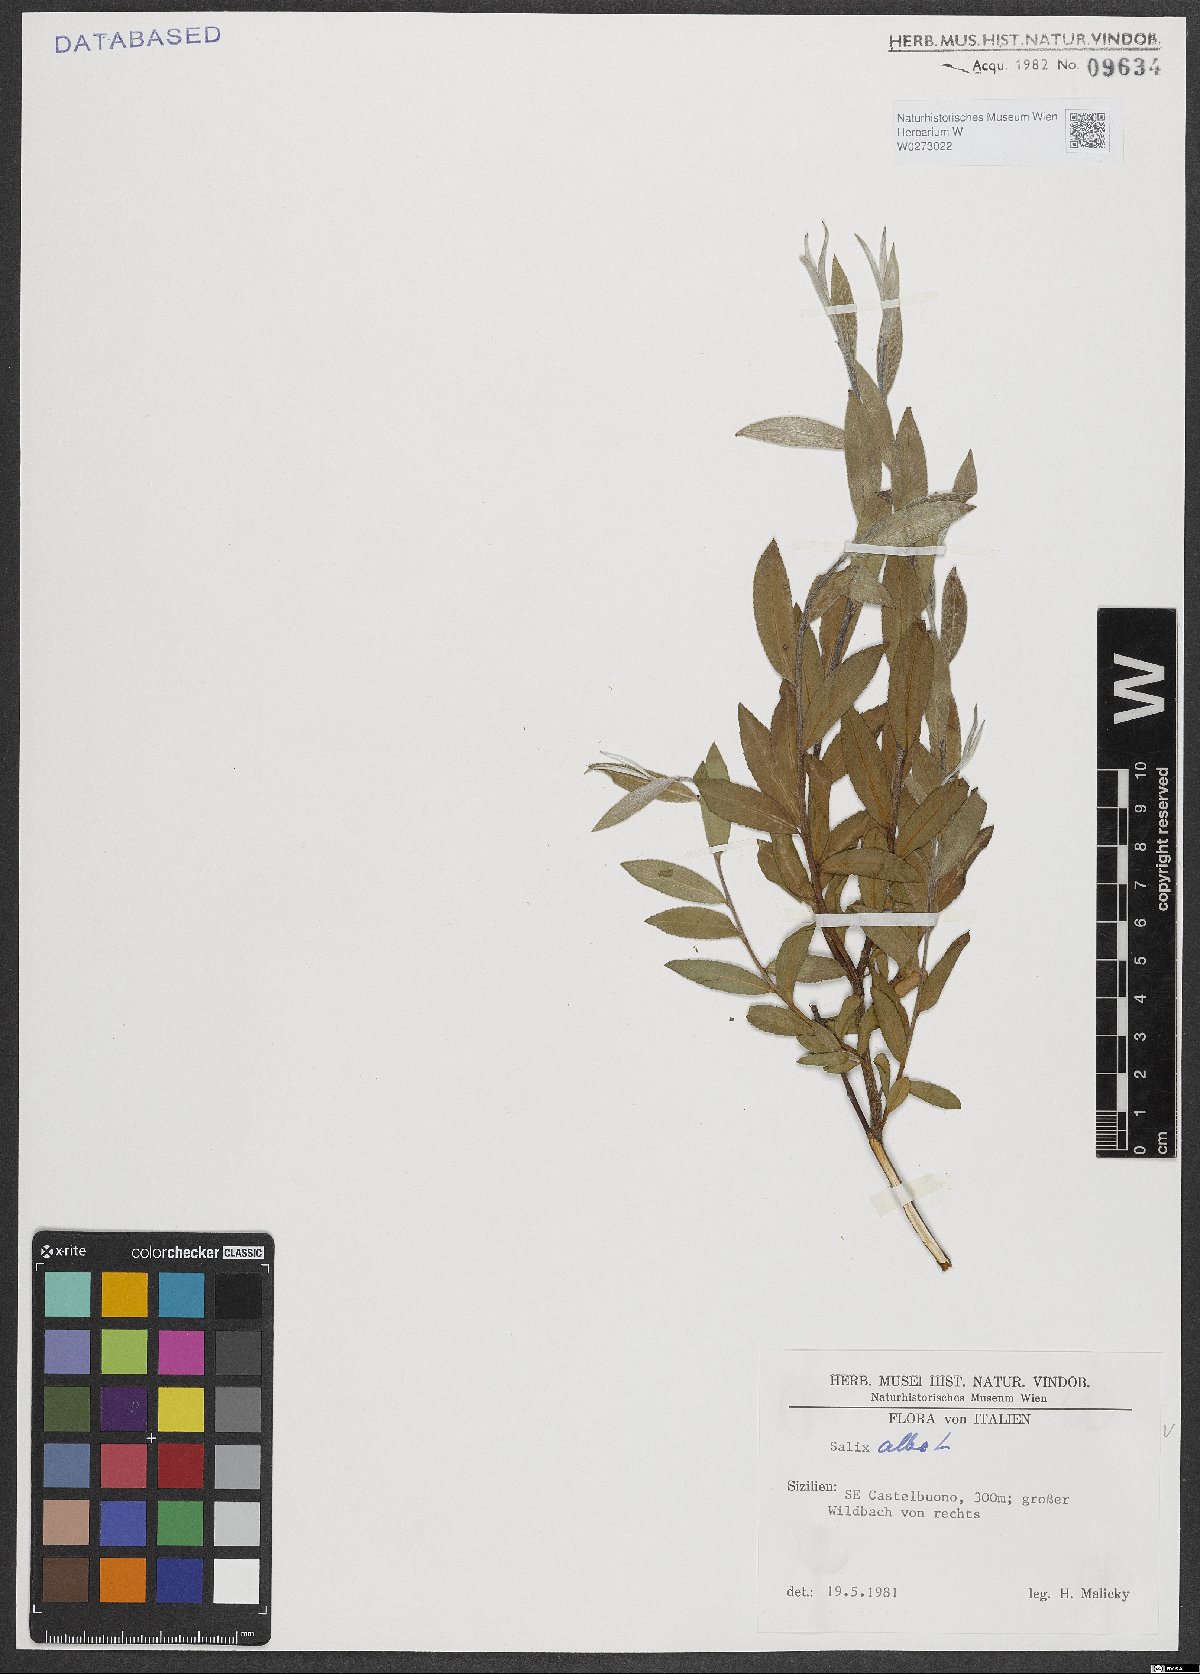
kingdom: Plantae
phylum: Tracheophyta
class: Magnoliopsida
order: Malpighiales
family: Salicaceae
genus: Salix
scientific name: Salix alba
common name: White willow
